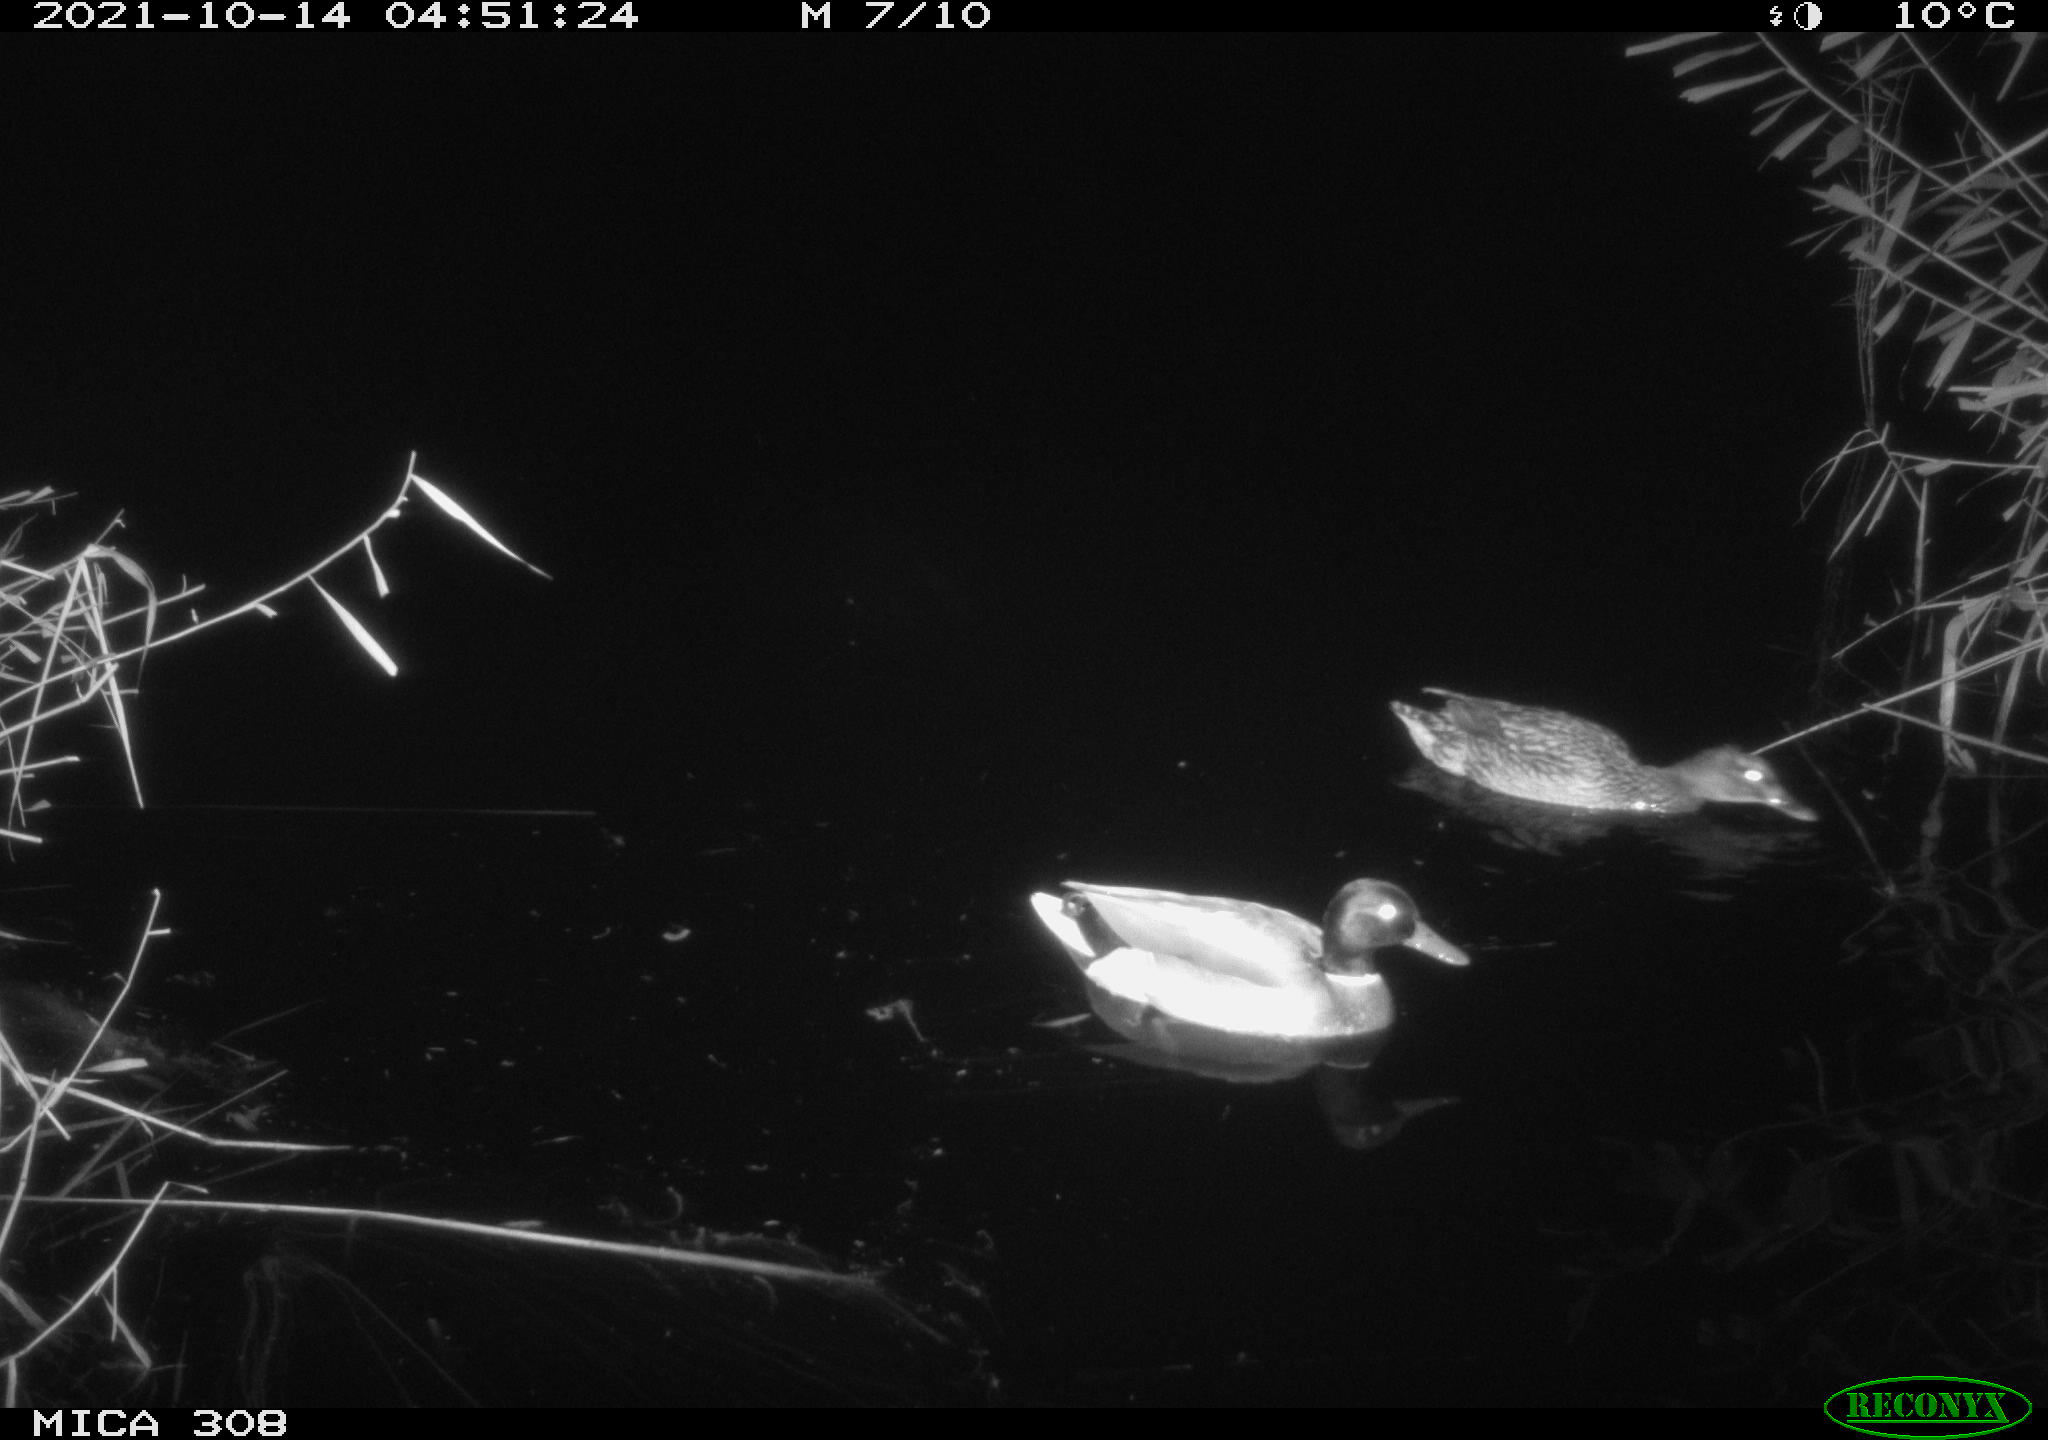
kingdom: Animalia
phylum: Chordata
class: Aves
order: Anseriformes
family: Anatidae
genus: Anas
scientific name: Anas platyrhynchos
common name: Mallard
